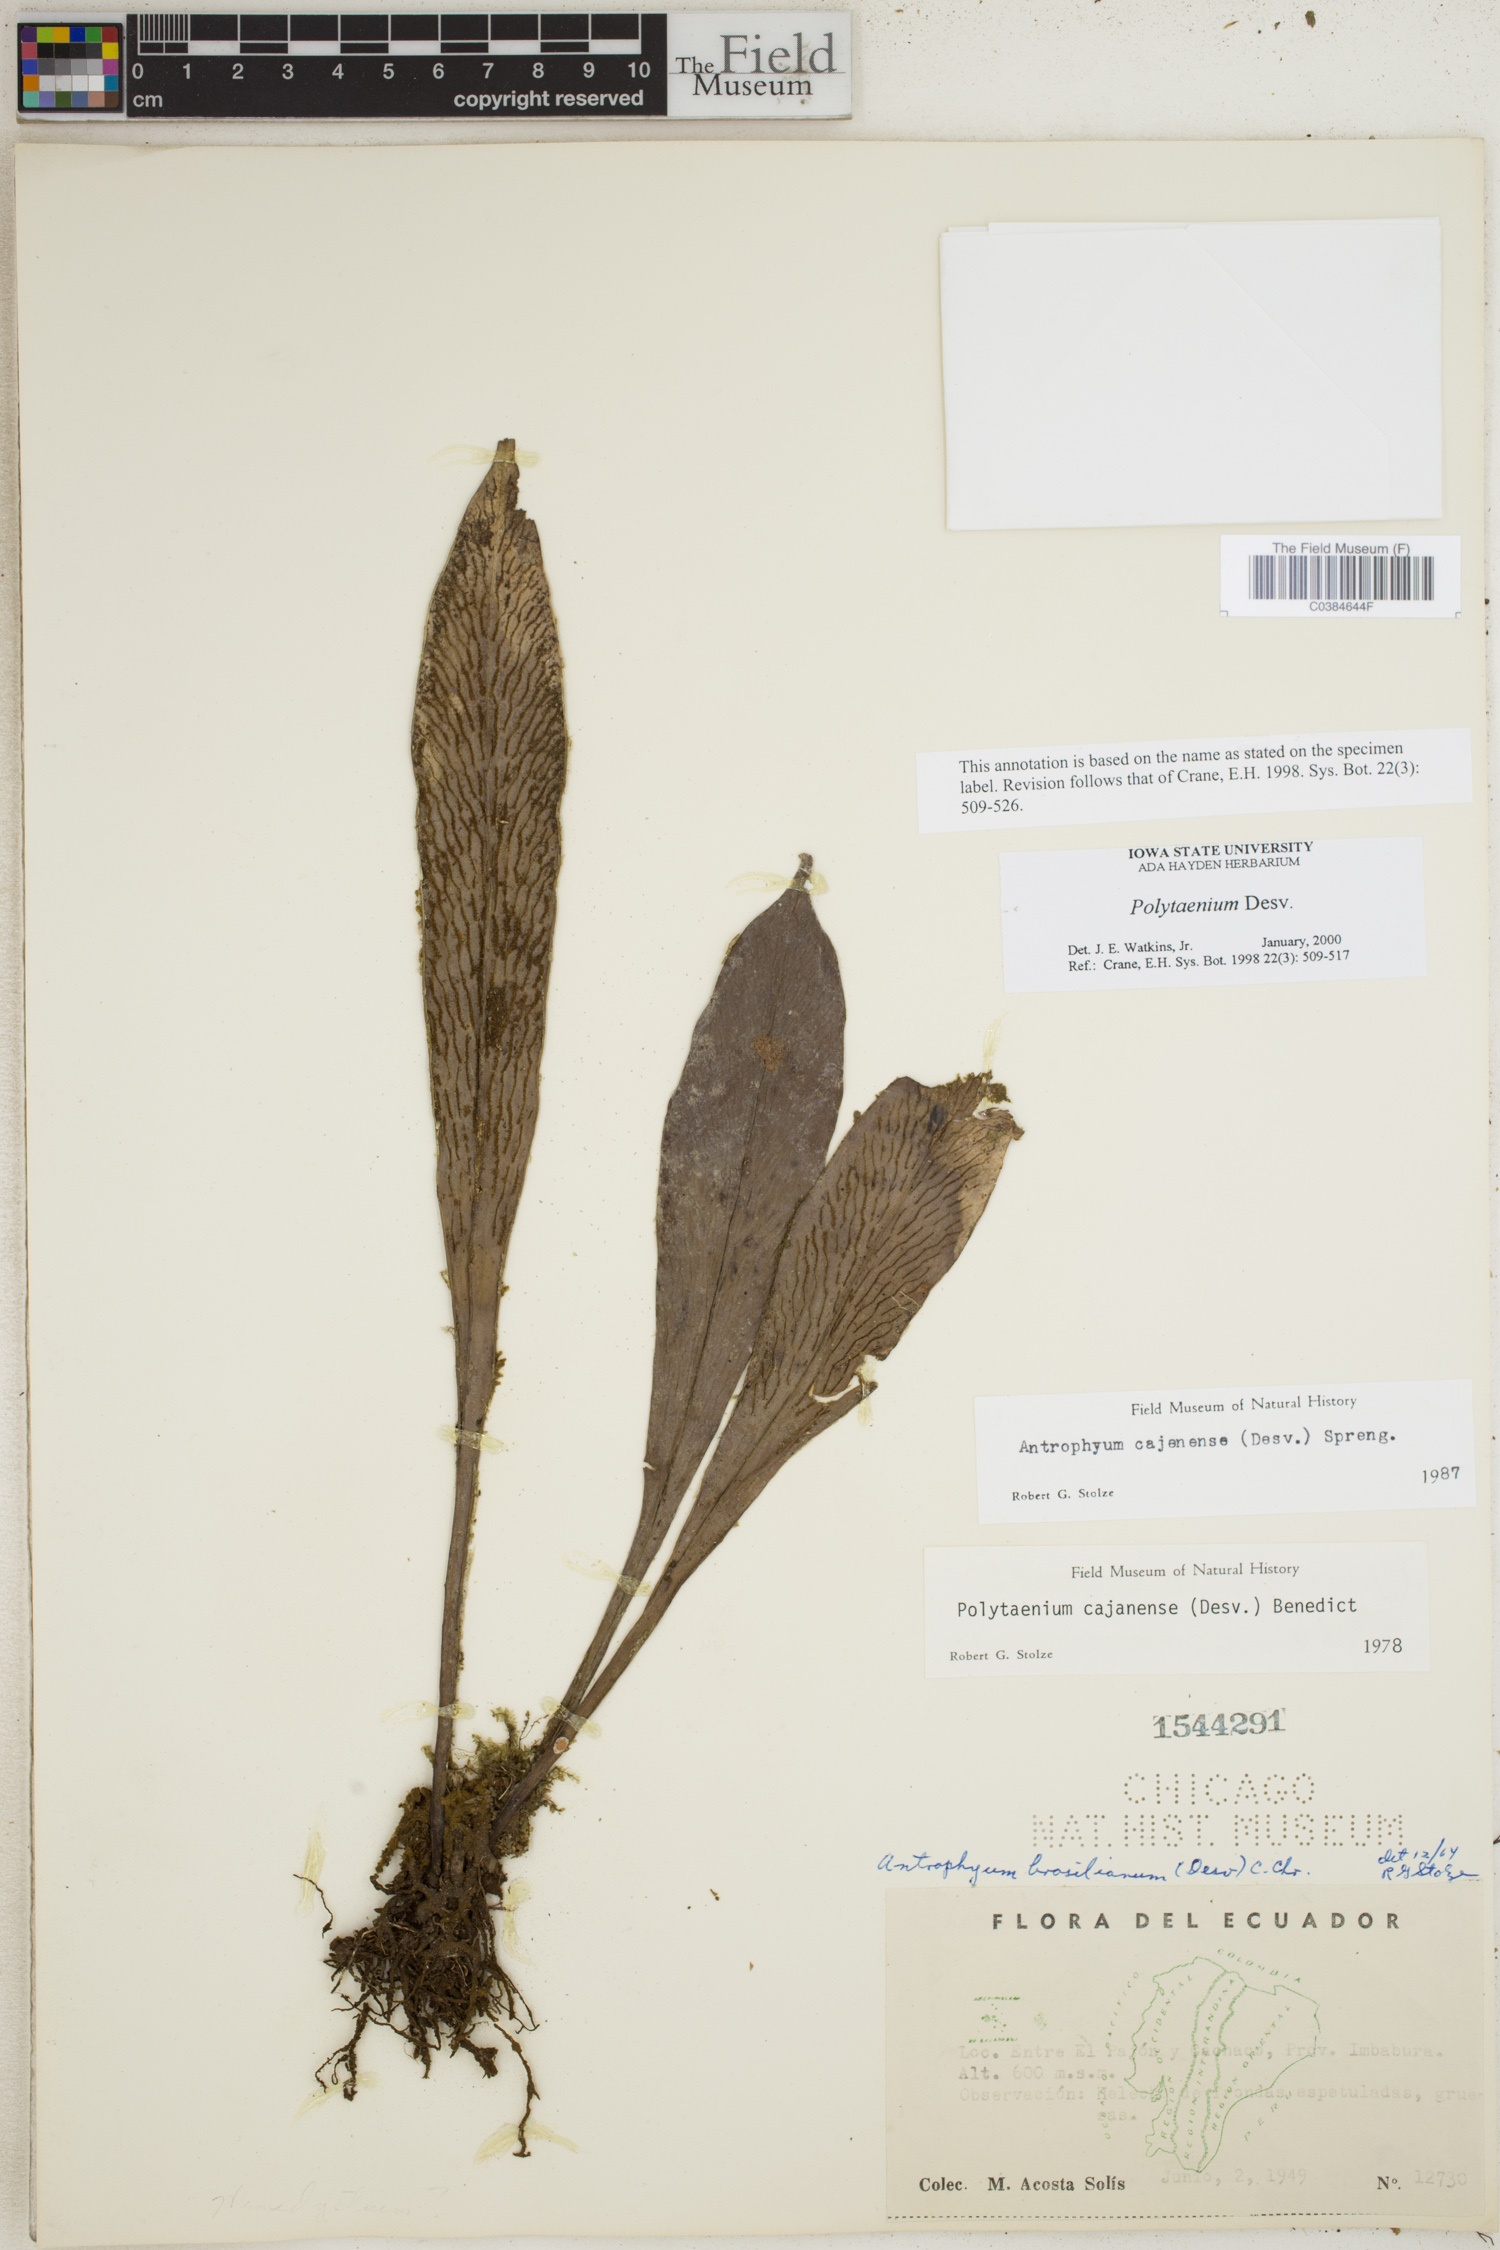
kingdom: Plantae
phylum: Tracheophyta
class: Polypodiopsida
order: Polypodiales
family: Pteridaceae
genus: Polytaenium
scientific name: Polytaenium
